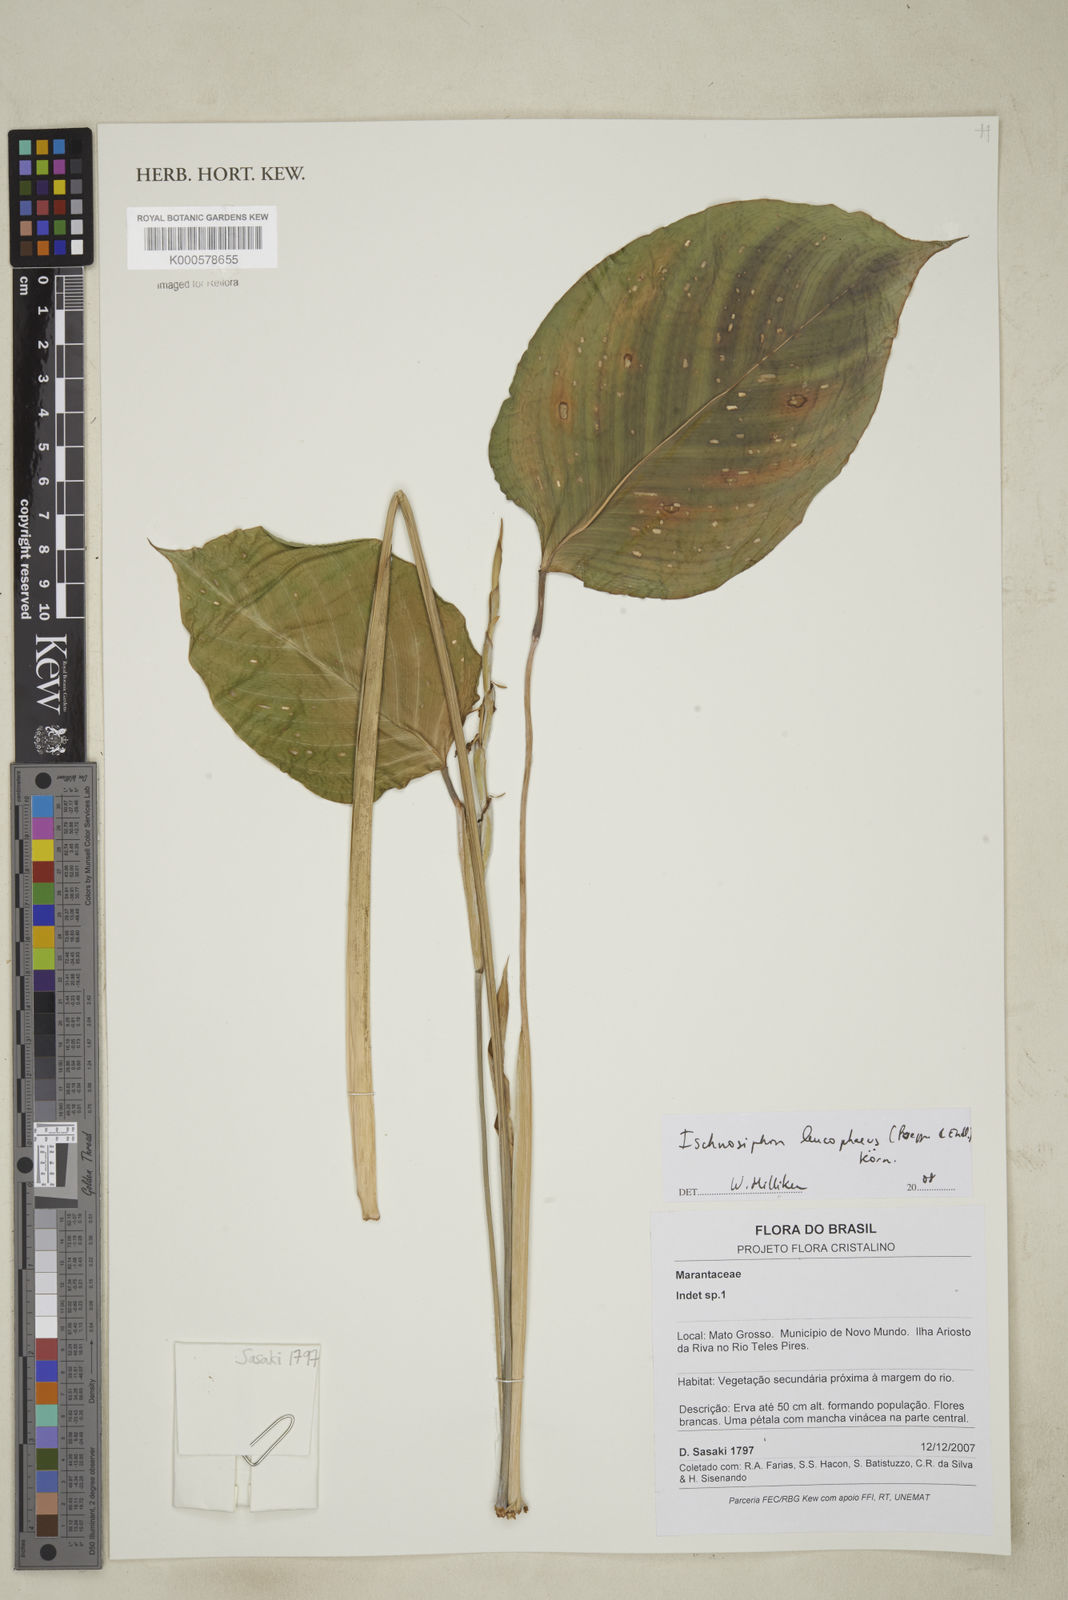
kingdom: Plantae
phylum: Tracheophyta
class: Liliopsida
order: Zingiberales
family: Marantaceae
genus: Ischnosiphon
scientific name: Ischnosiphon
